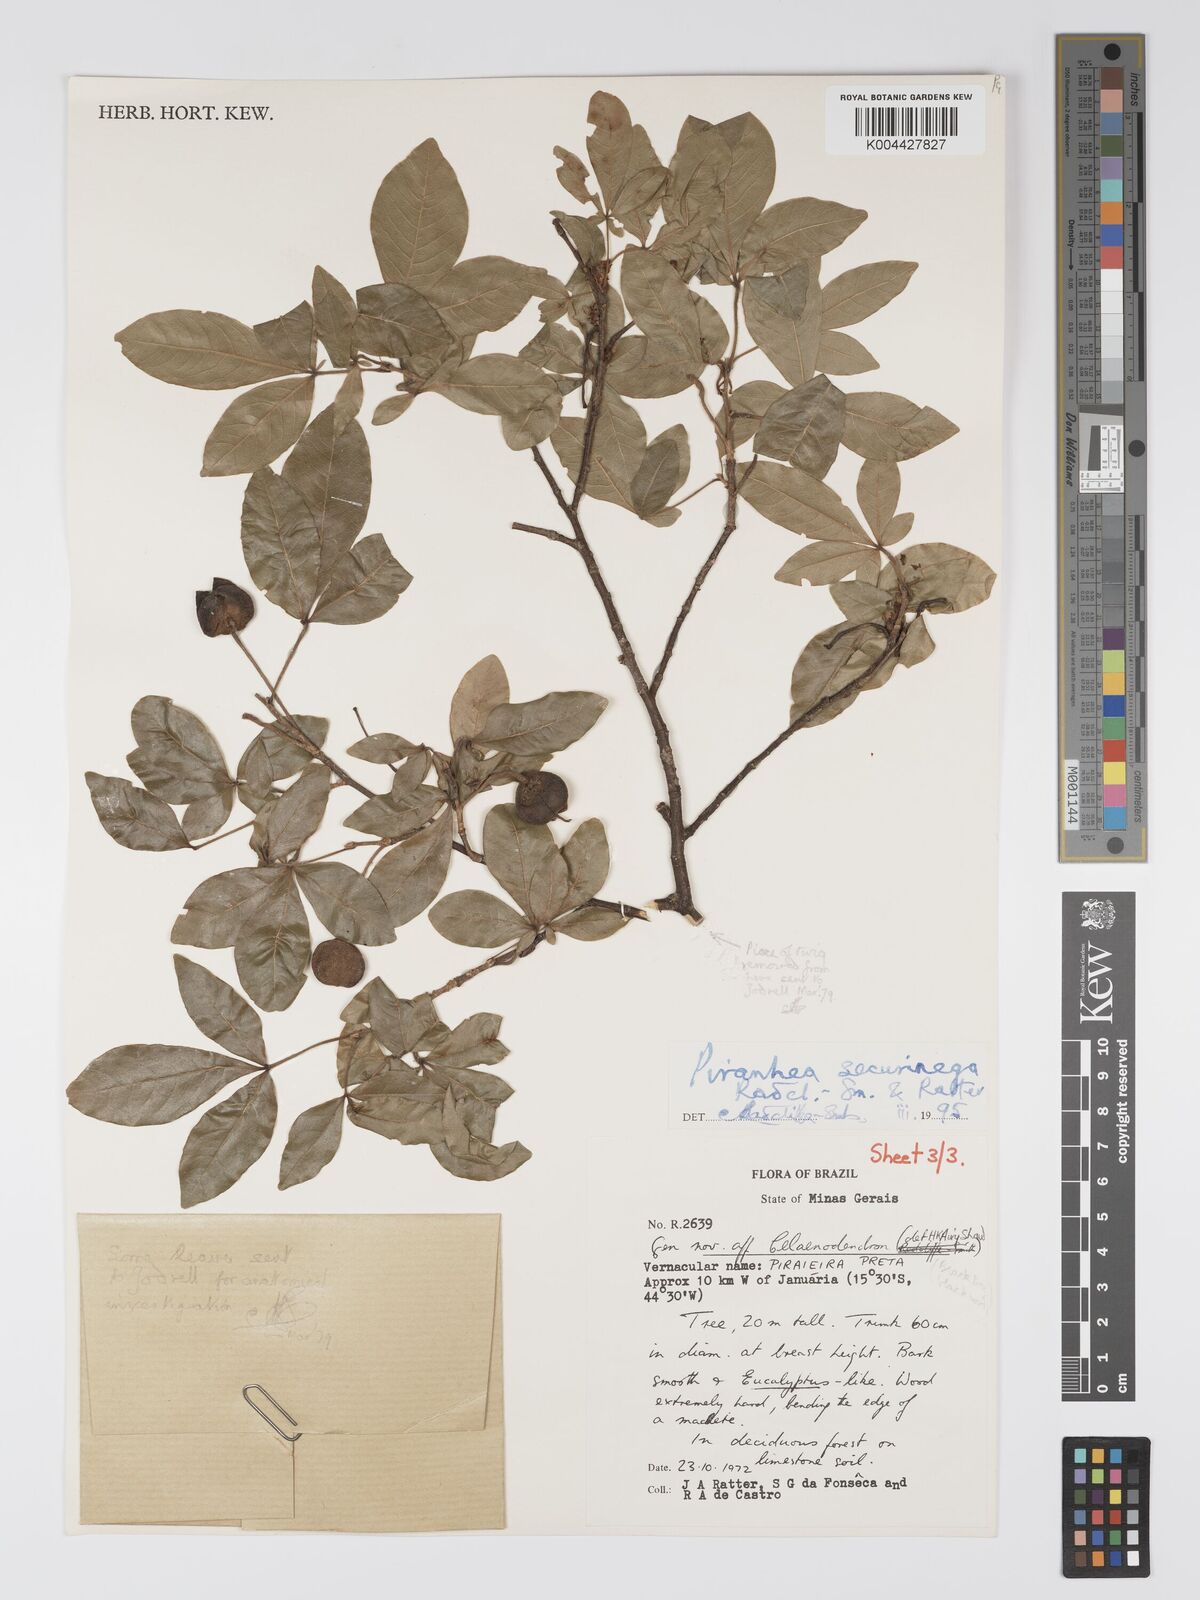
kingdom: Plantae
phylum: Tracheophyta
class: Magnoliopsida
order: Malpighiales
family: Picrodendraceae
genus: Piranhea
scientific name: Piranhea securinega
